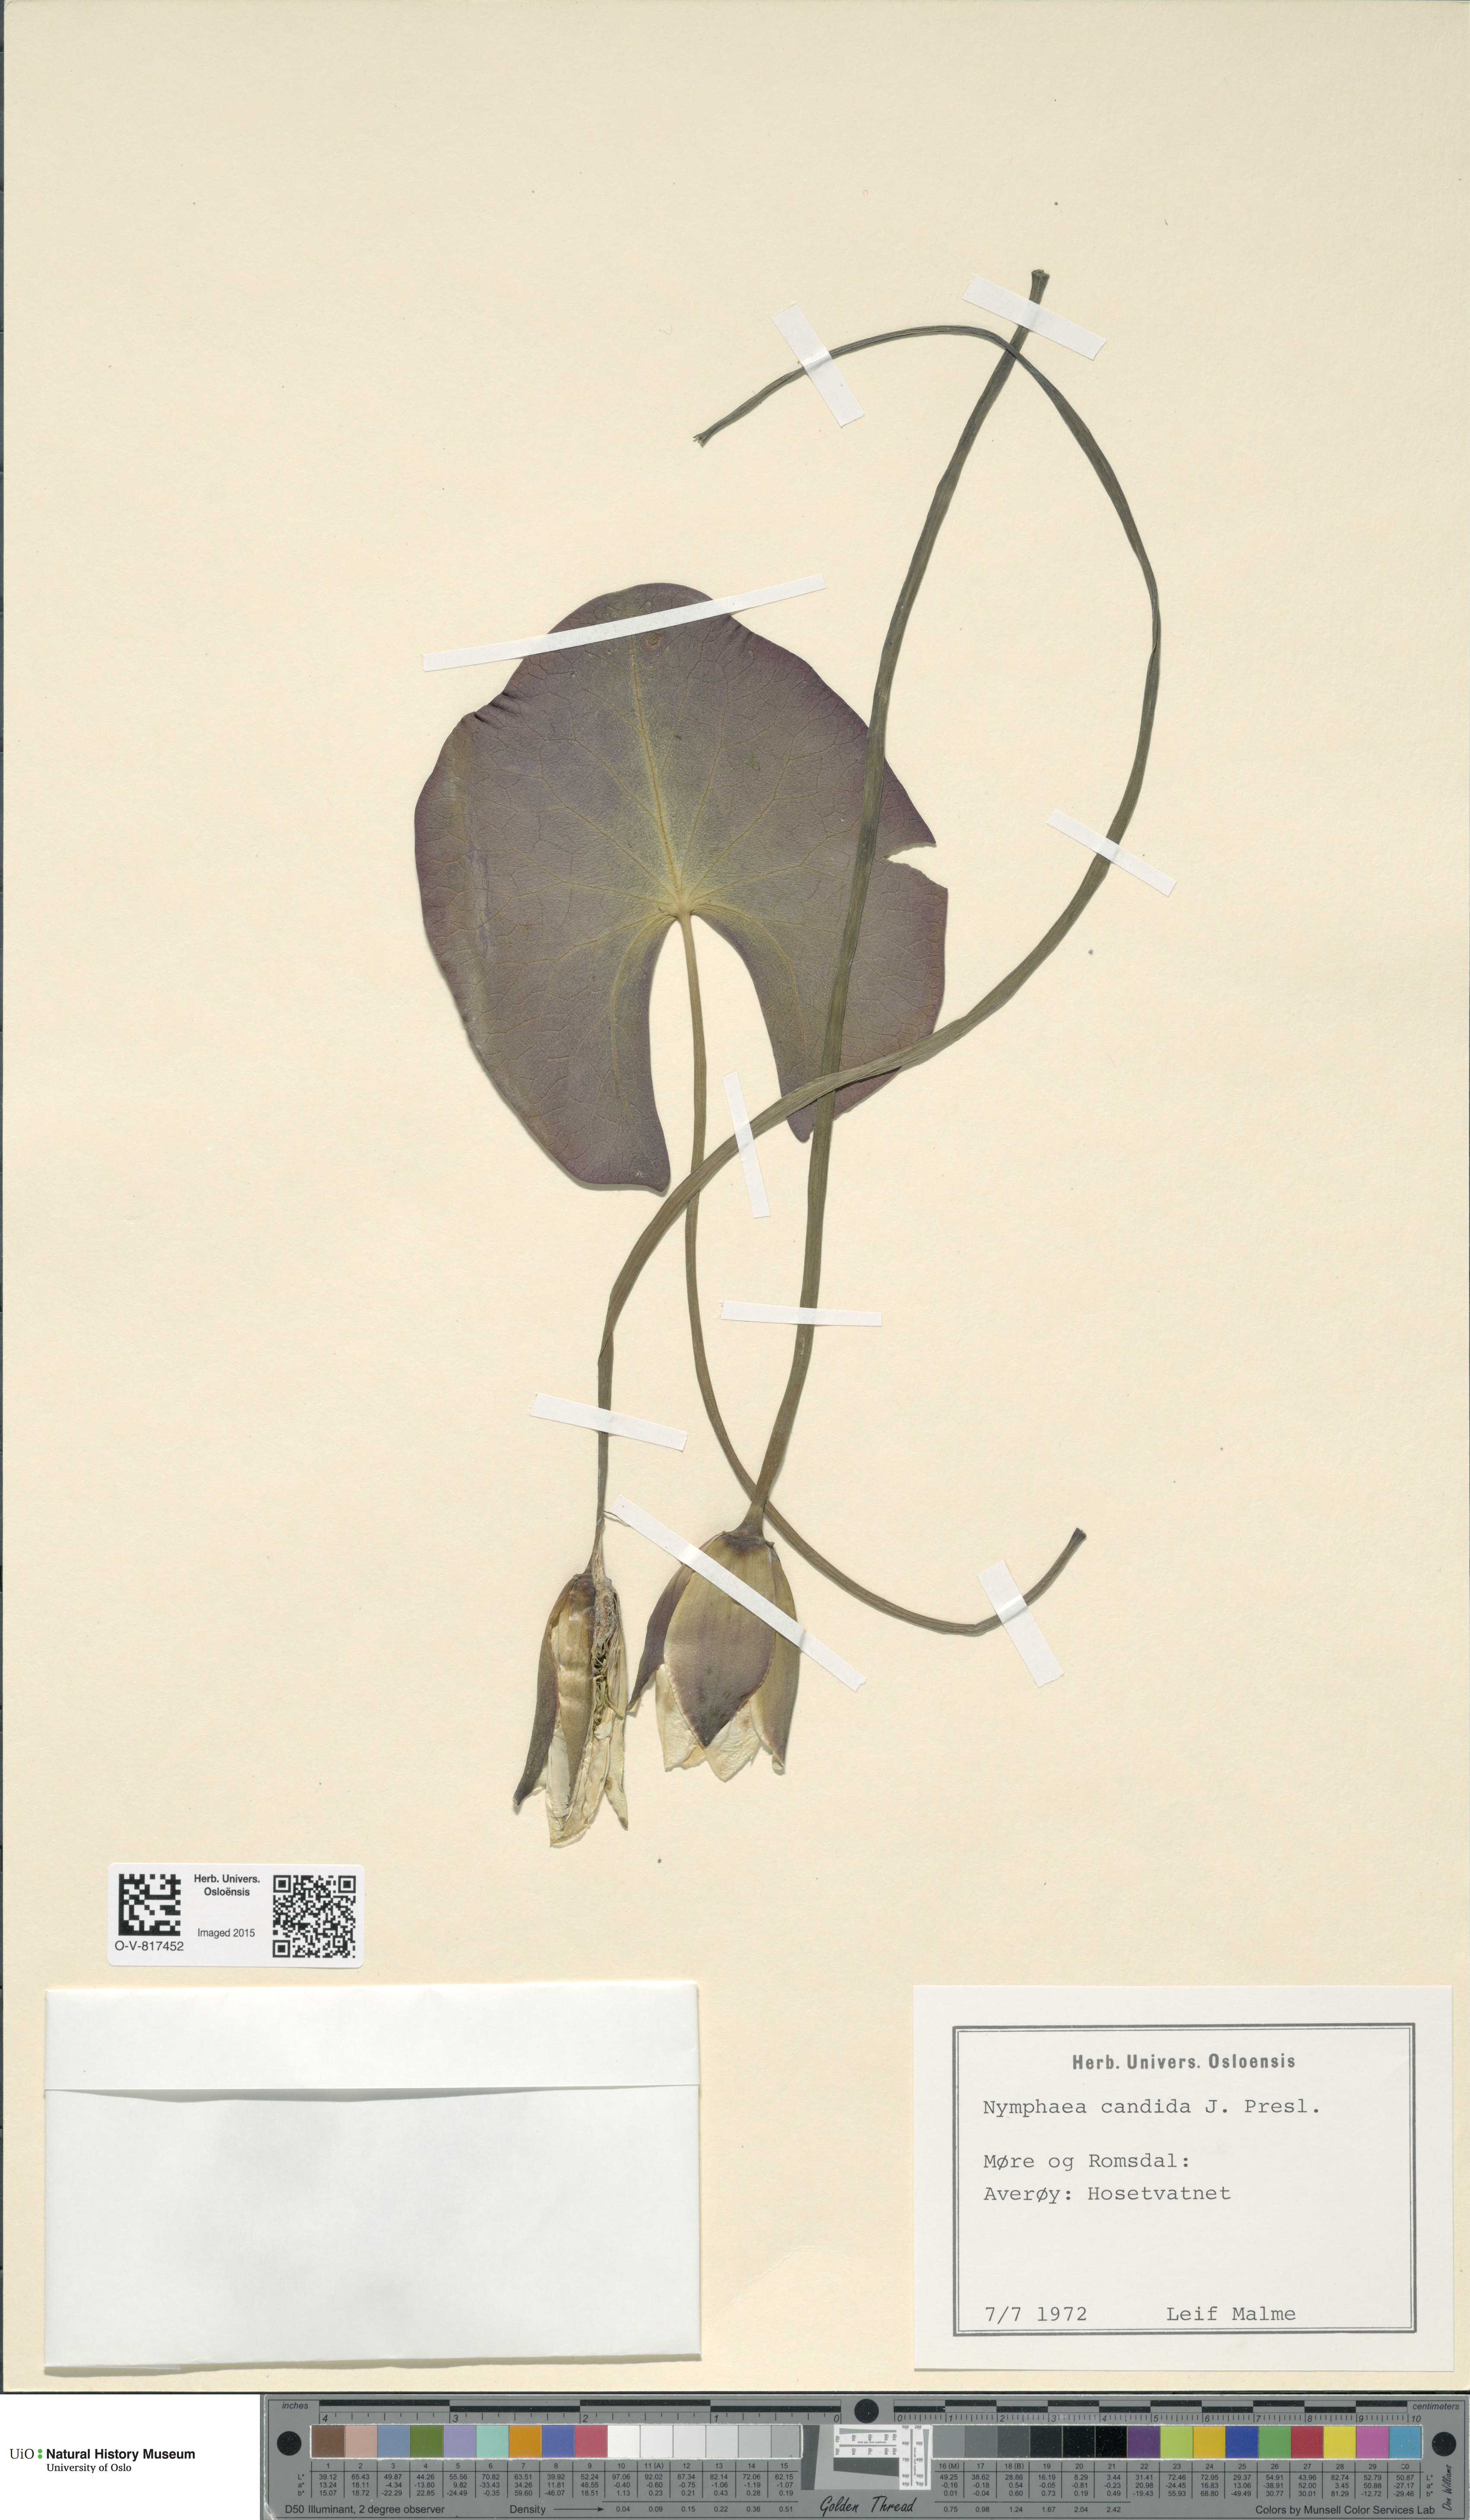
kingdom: Plantae
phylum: Tracheophyta
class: Magnoliopsida
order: Nymphaeales
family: Nymphaeaceae
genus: Nymphaea
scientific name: Nymphaea candida
